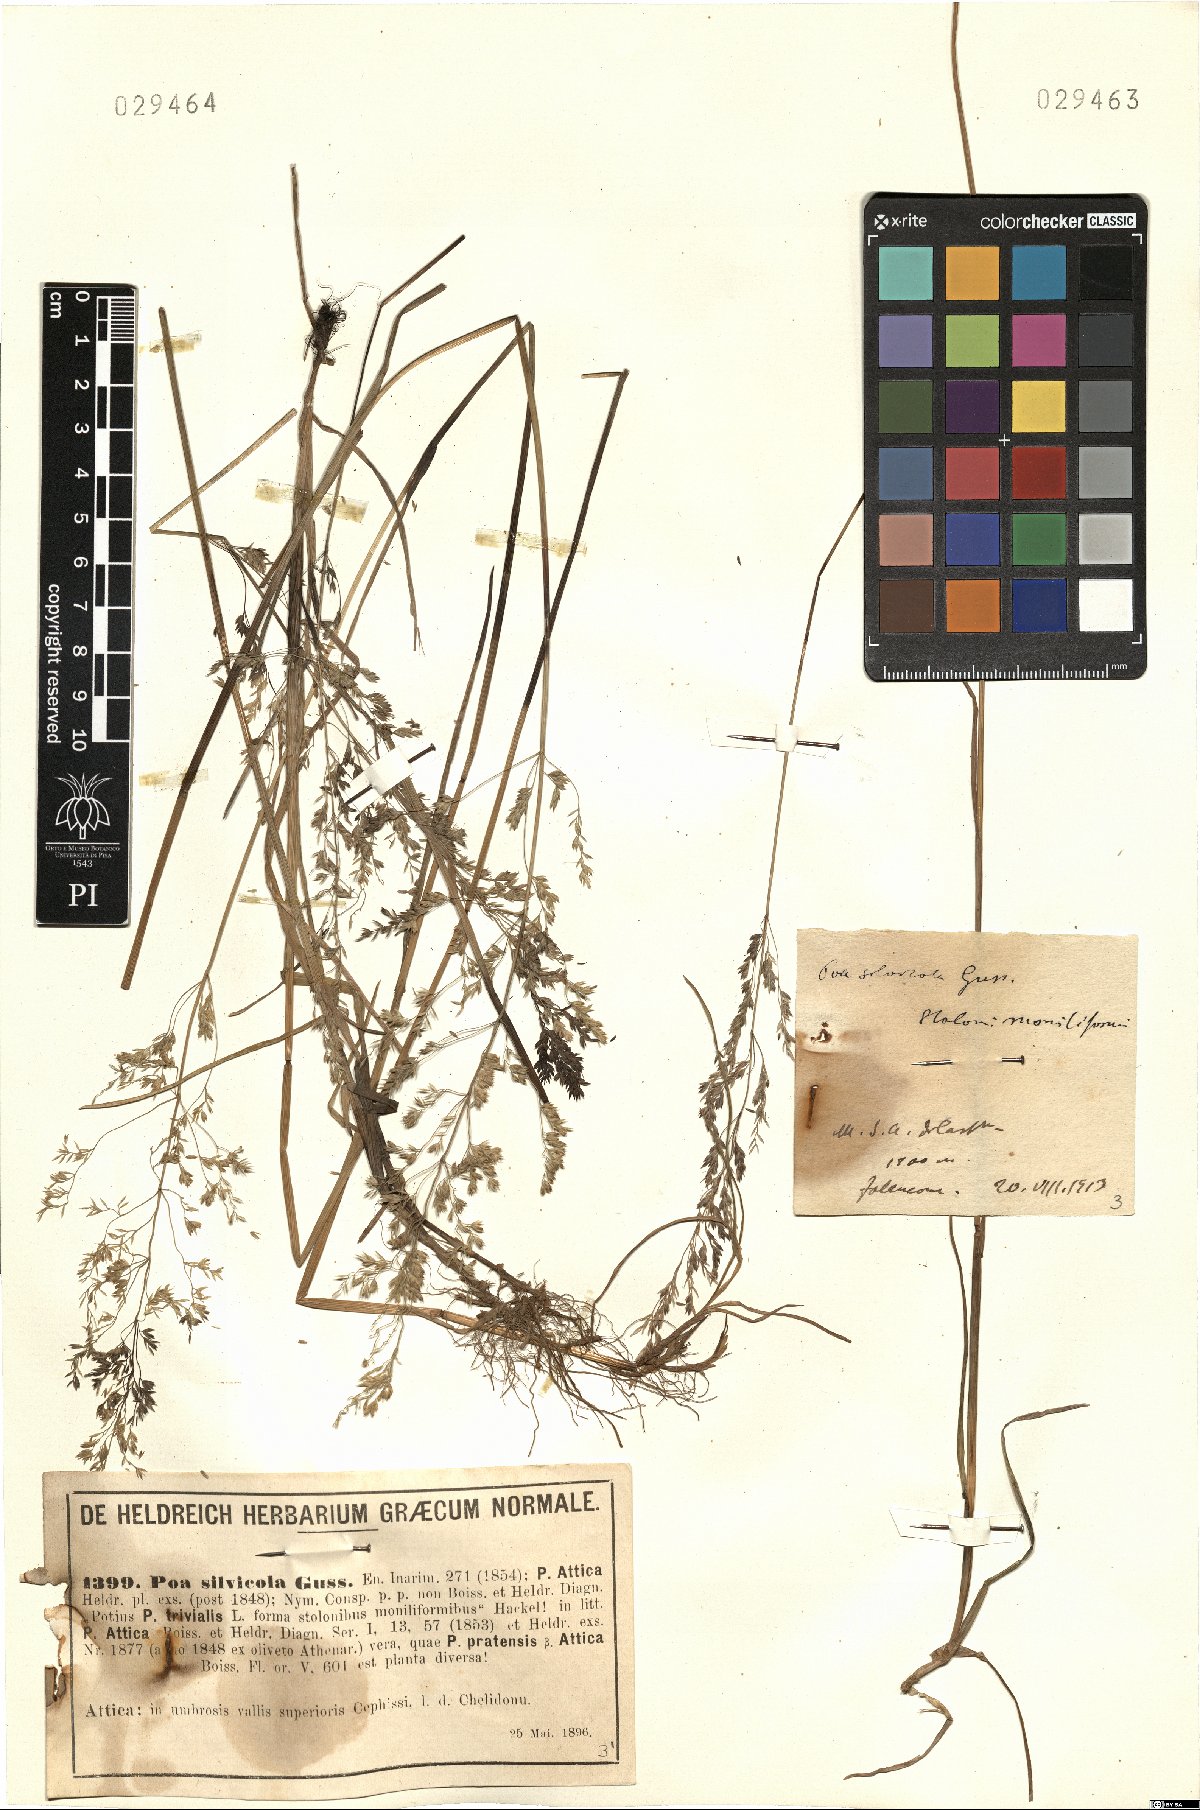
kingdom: Plantae
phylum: Tracheophyta
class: Liliopsida
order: Poales
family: Poaceae
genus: Poa
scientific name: Poa trivialis
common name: Rough bluegrass
